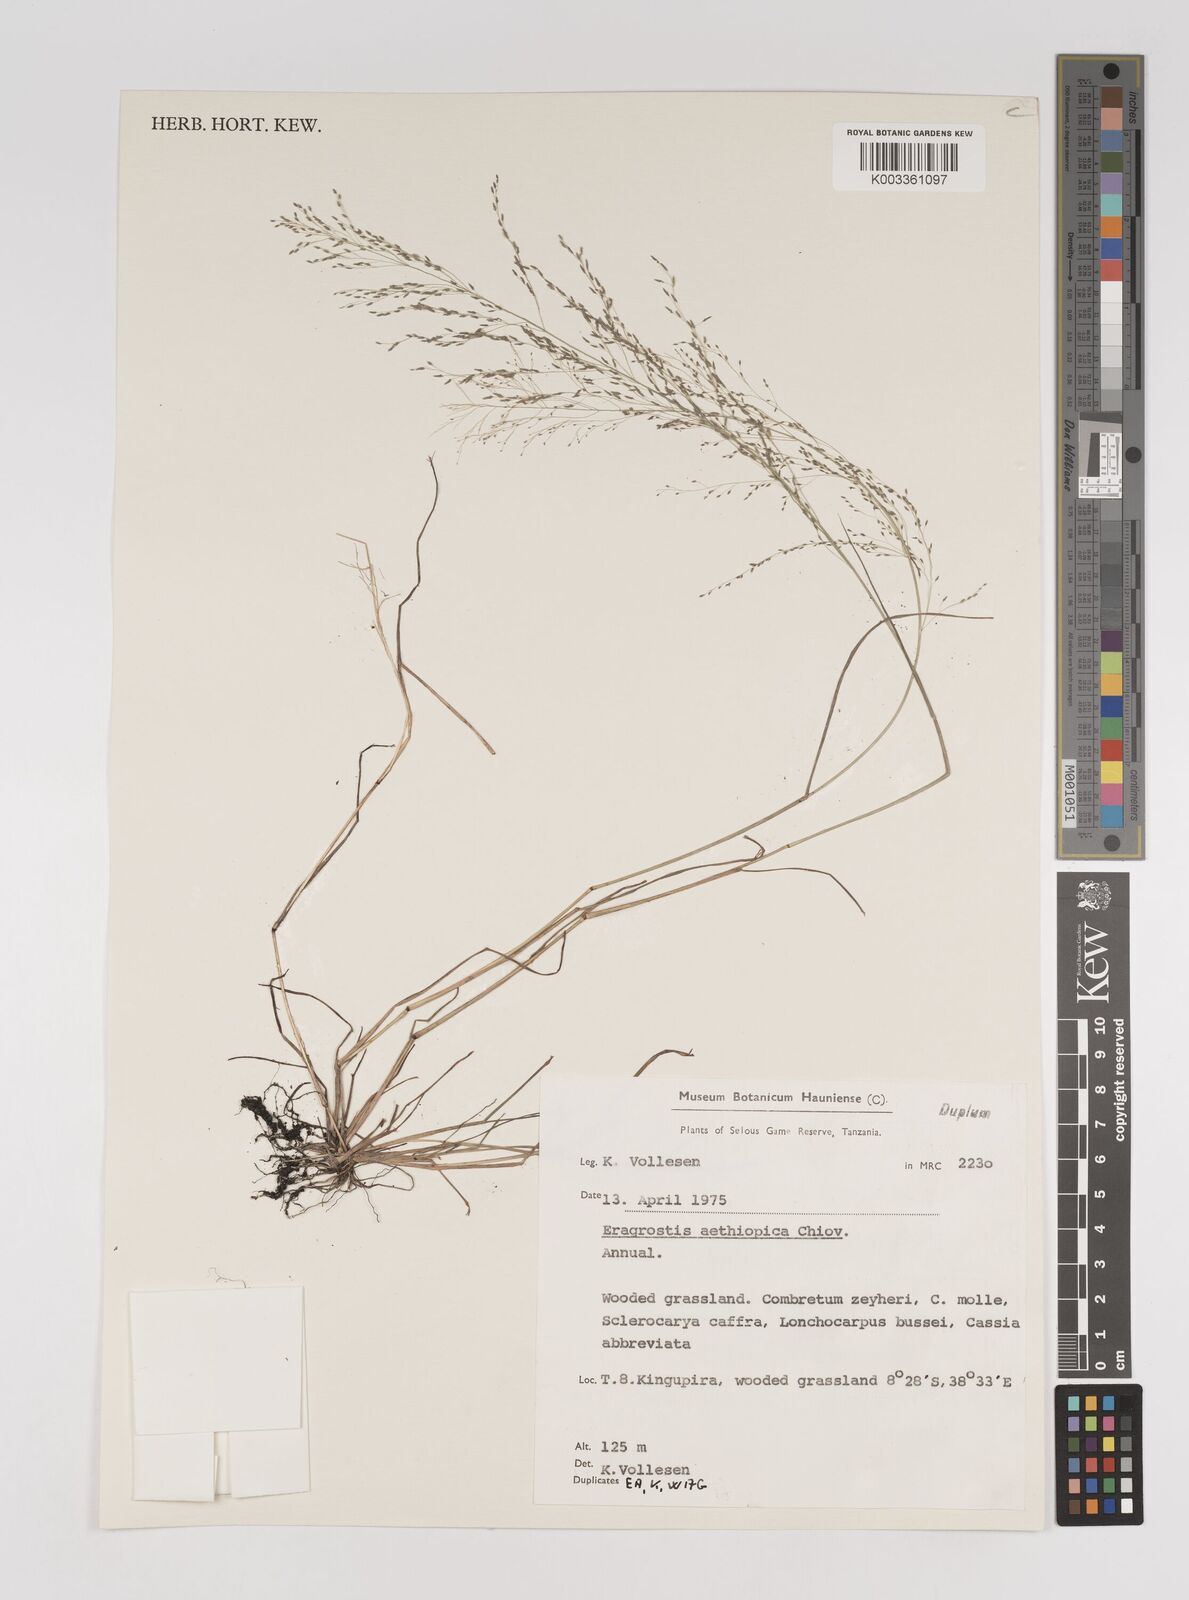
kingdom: Plantae
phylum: Tracheophyta
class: Liliopsida
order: Poales
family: Poaceae
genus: Eragrostis
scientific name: Eragrostis aethiopica
